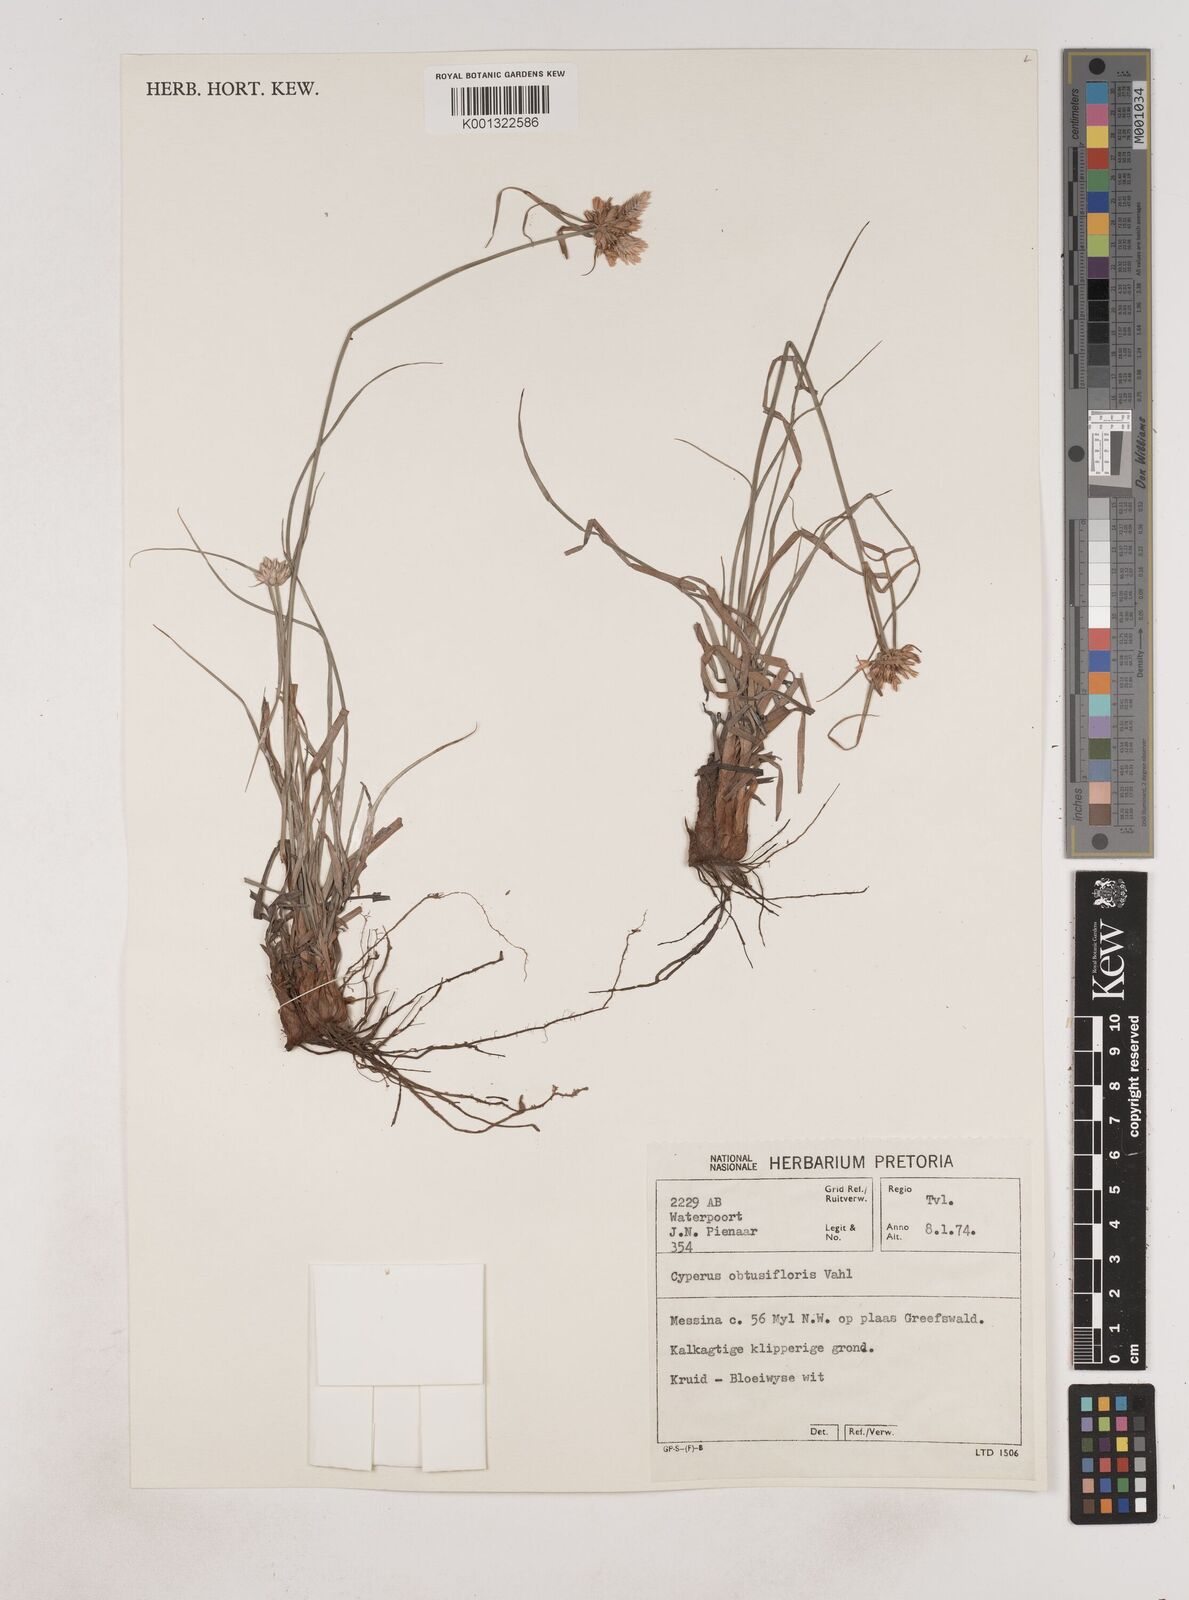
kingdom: Plantae
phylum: Tracheophyta
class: Liliopsida
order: Poales
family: Cyperaceae
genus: Cyperus
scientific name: Cyperus niveus
